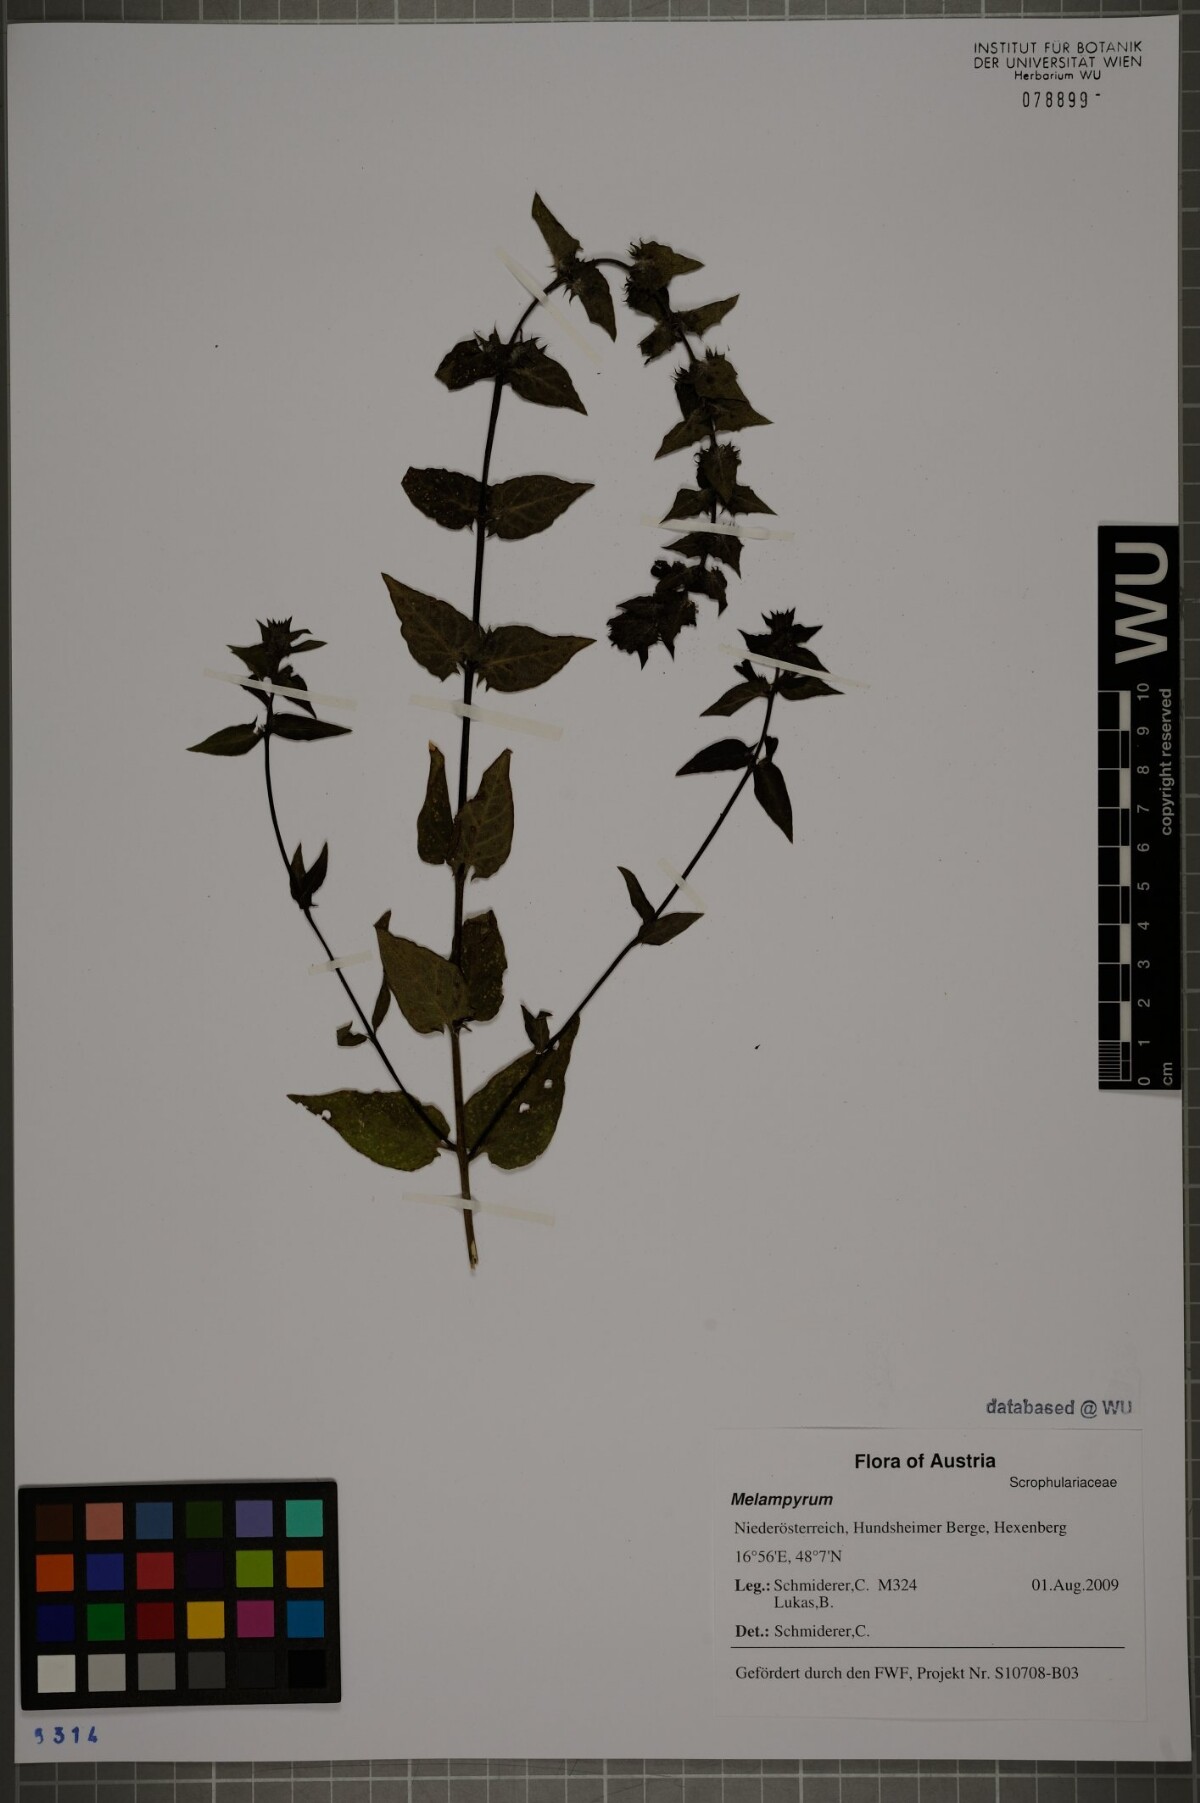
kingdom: Plantae
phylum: Tracheophyta
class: Magnoliopsida
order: Lamiales
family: Orobanchaceae
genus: Melampyrum
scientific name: Melampyrum
